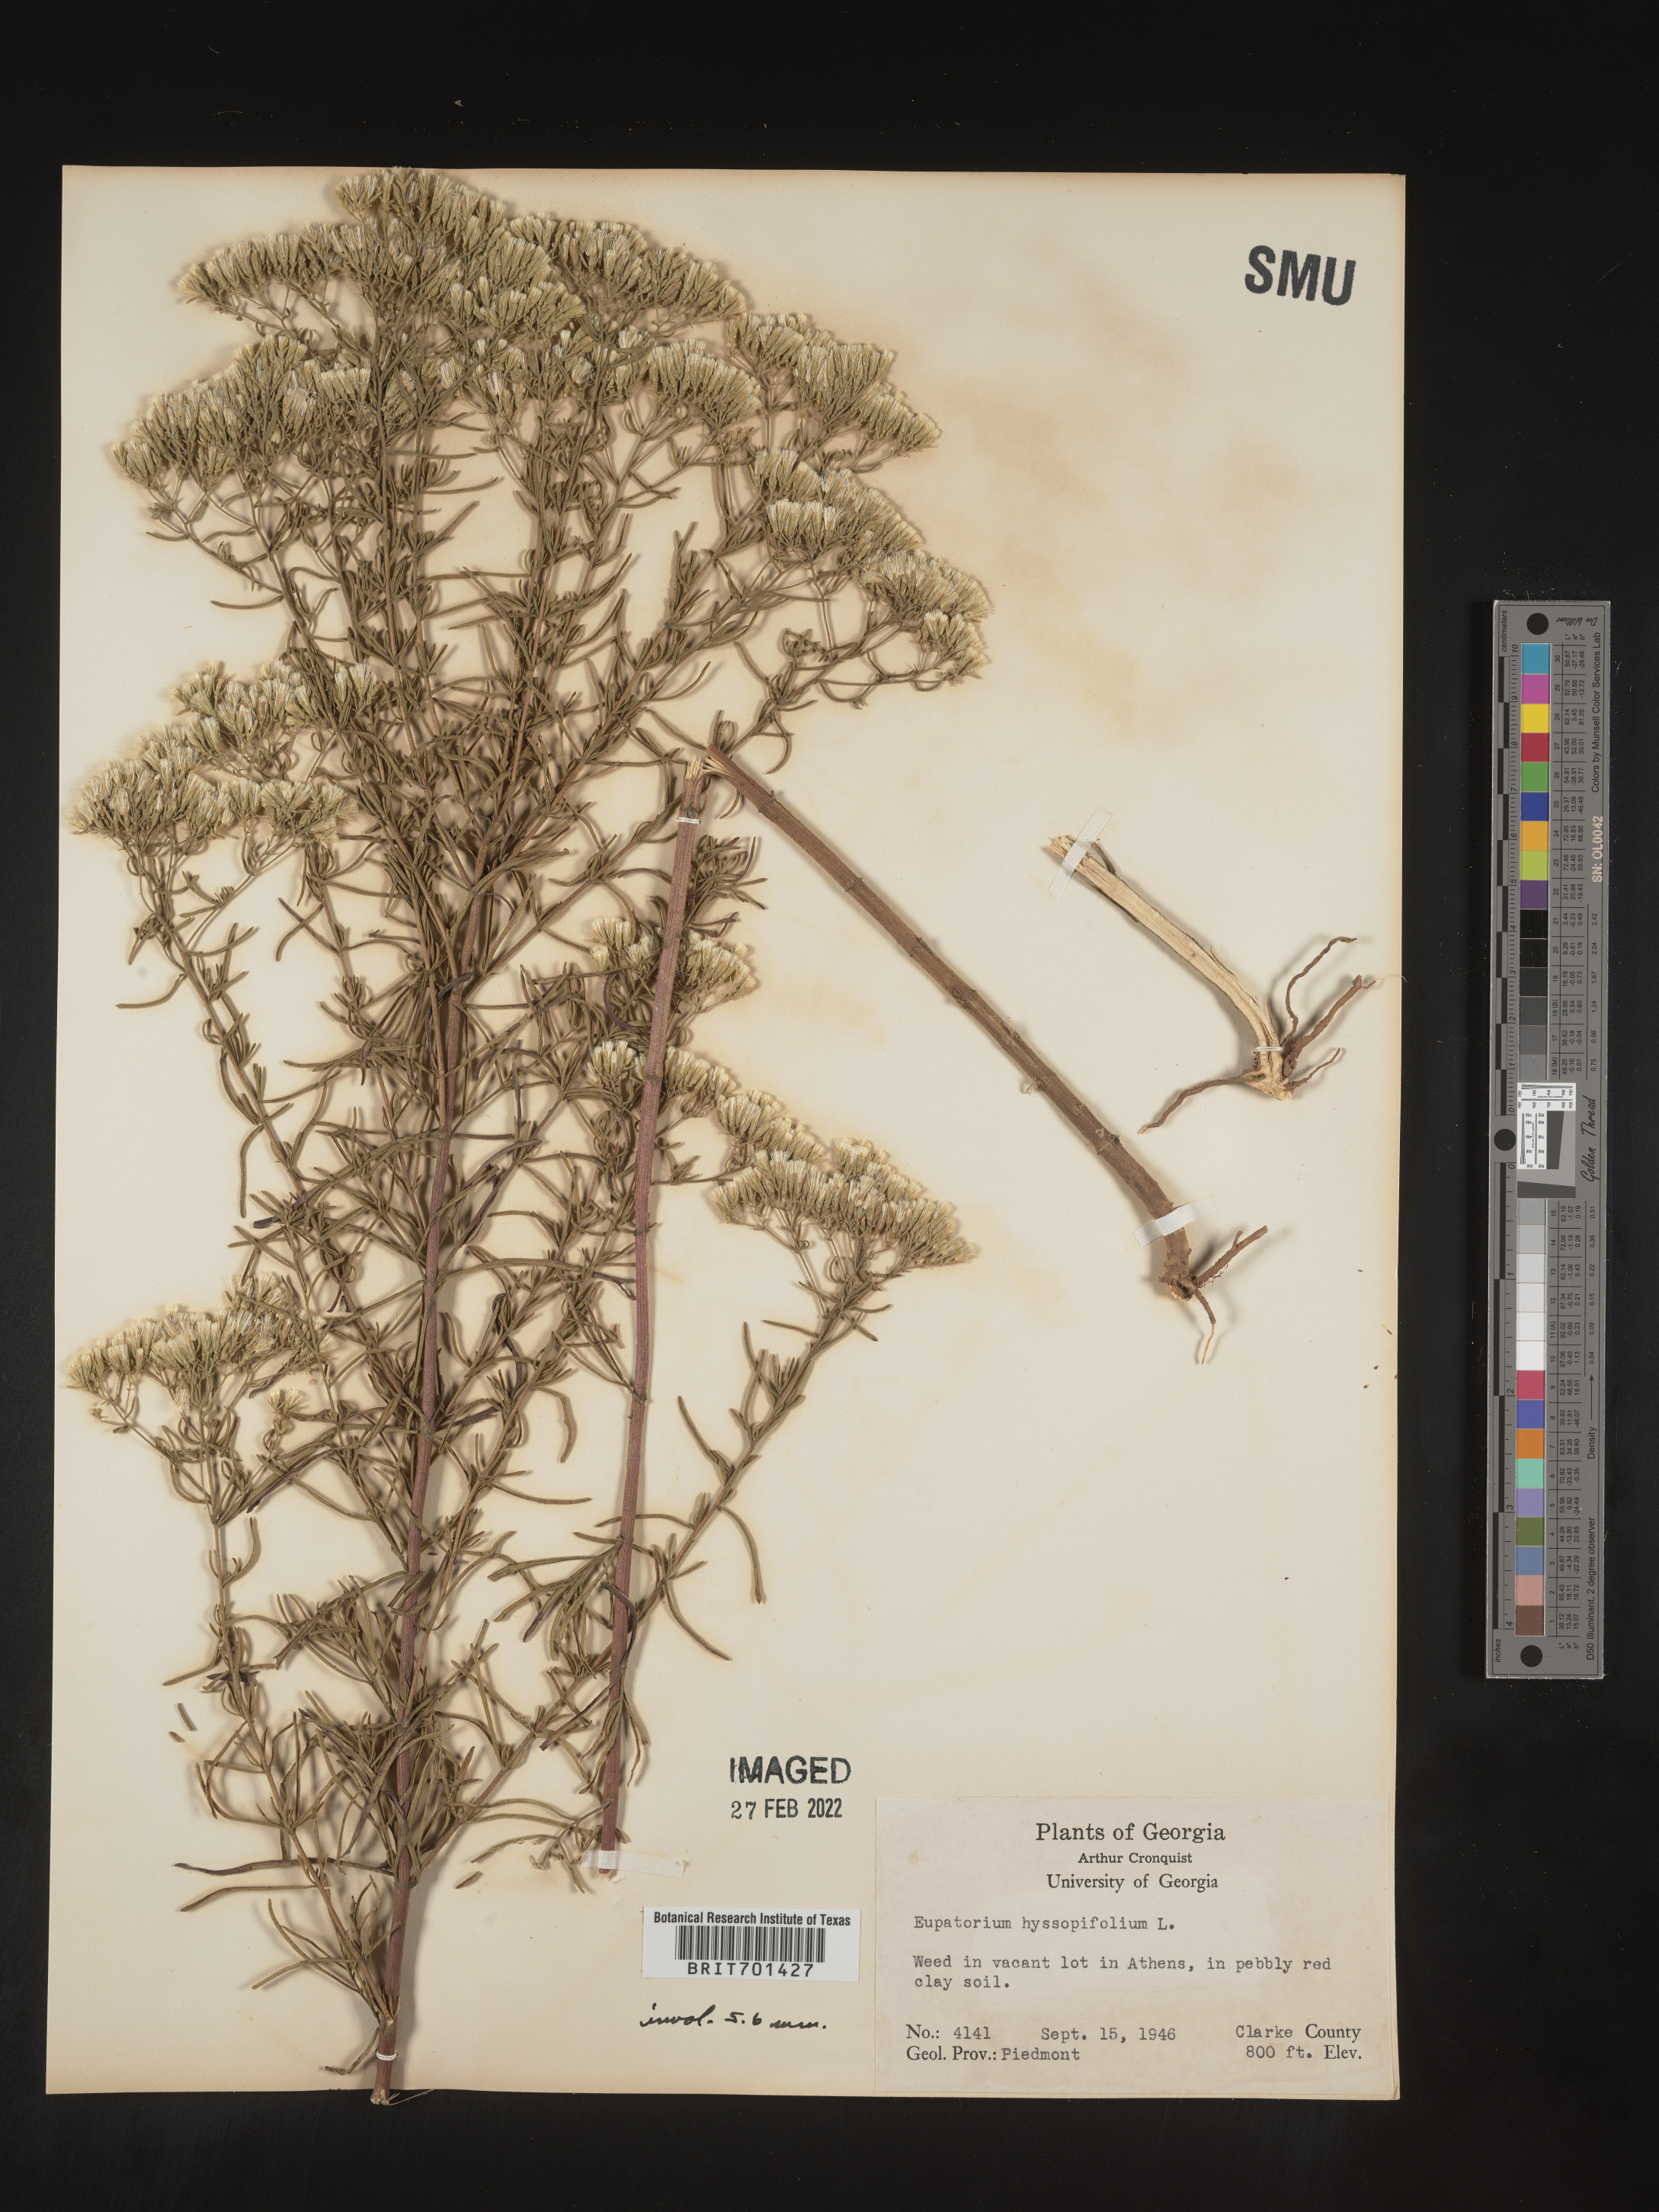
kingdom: Plantae
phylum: Tracheophyta
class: Magnoliopsida
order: Asterales
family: Asteraceae
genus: Eupatorium
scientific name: Eupatorium hyssopifolium
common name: Hyssop-leaf thoroughwort
